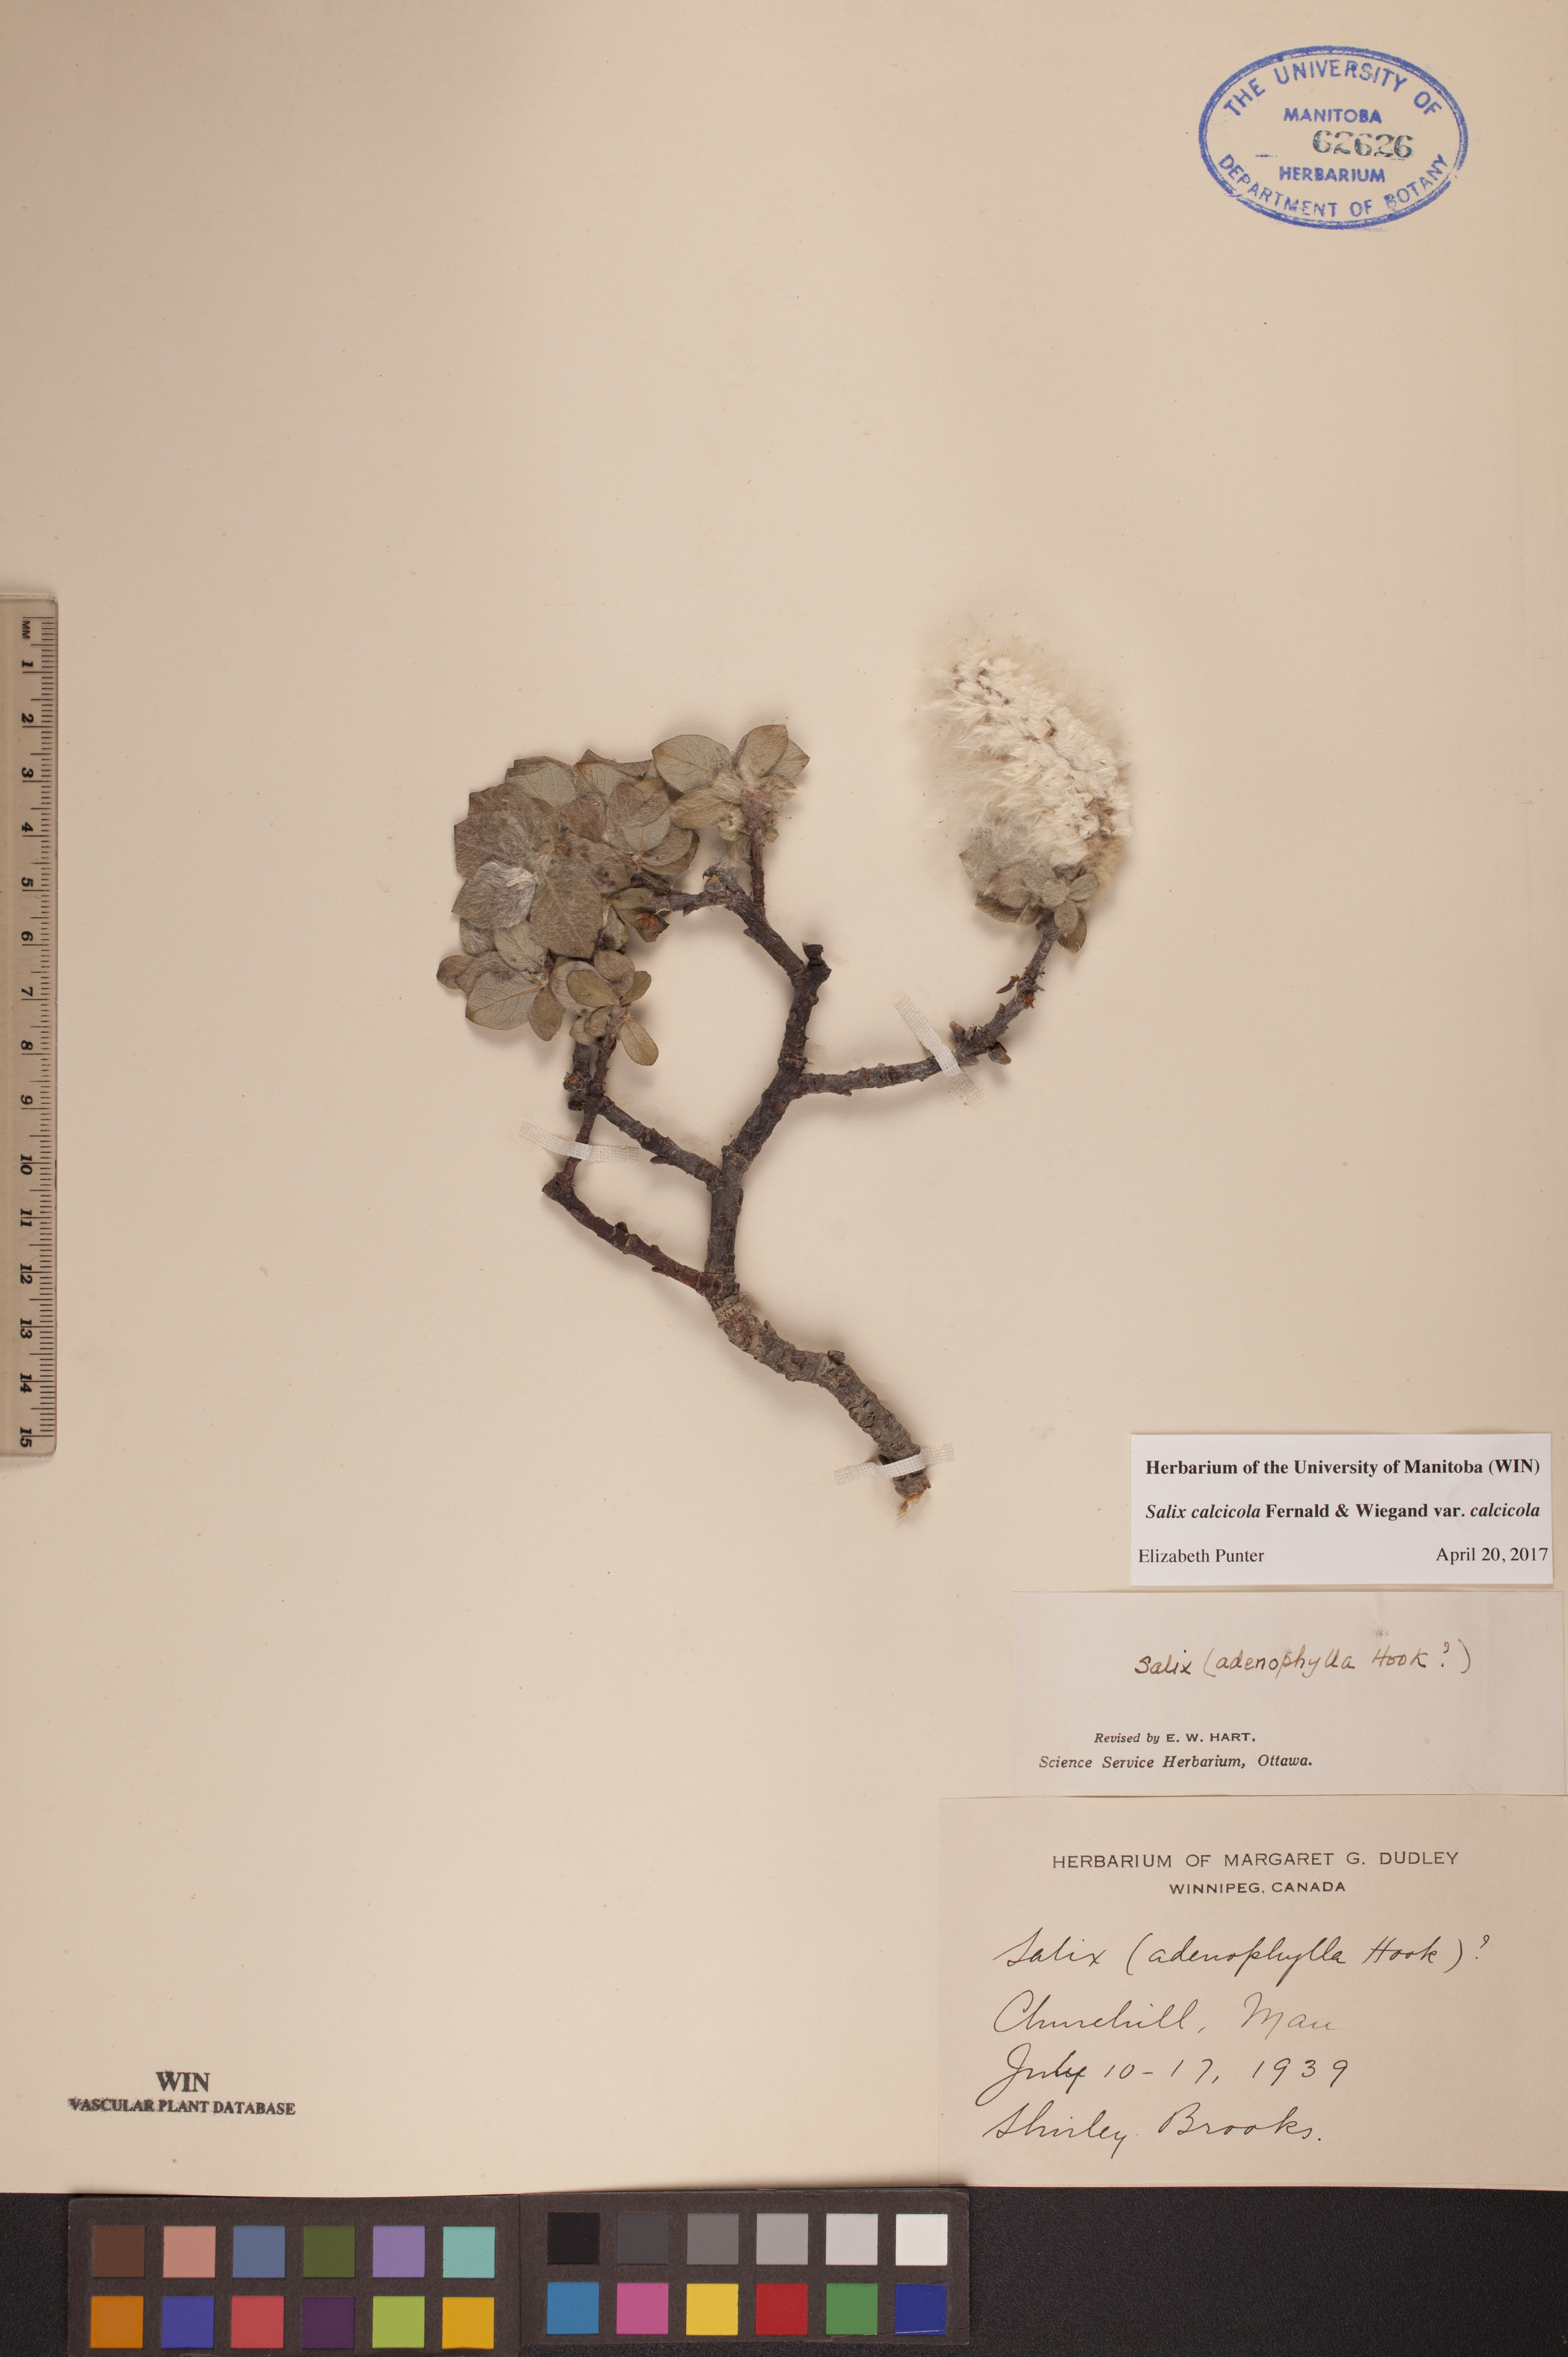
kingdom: Plantae
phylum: Tracheophyta
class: Magnoliopsida
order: Malpighiales
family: Salicaceae
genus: Salix
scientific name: Salix calcicola
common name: Calcareous willow
